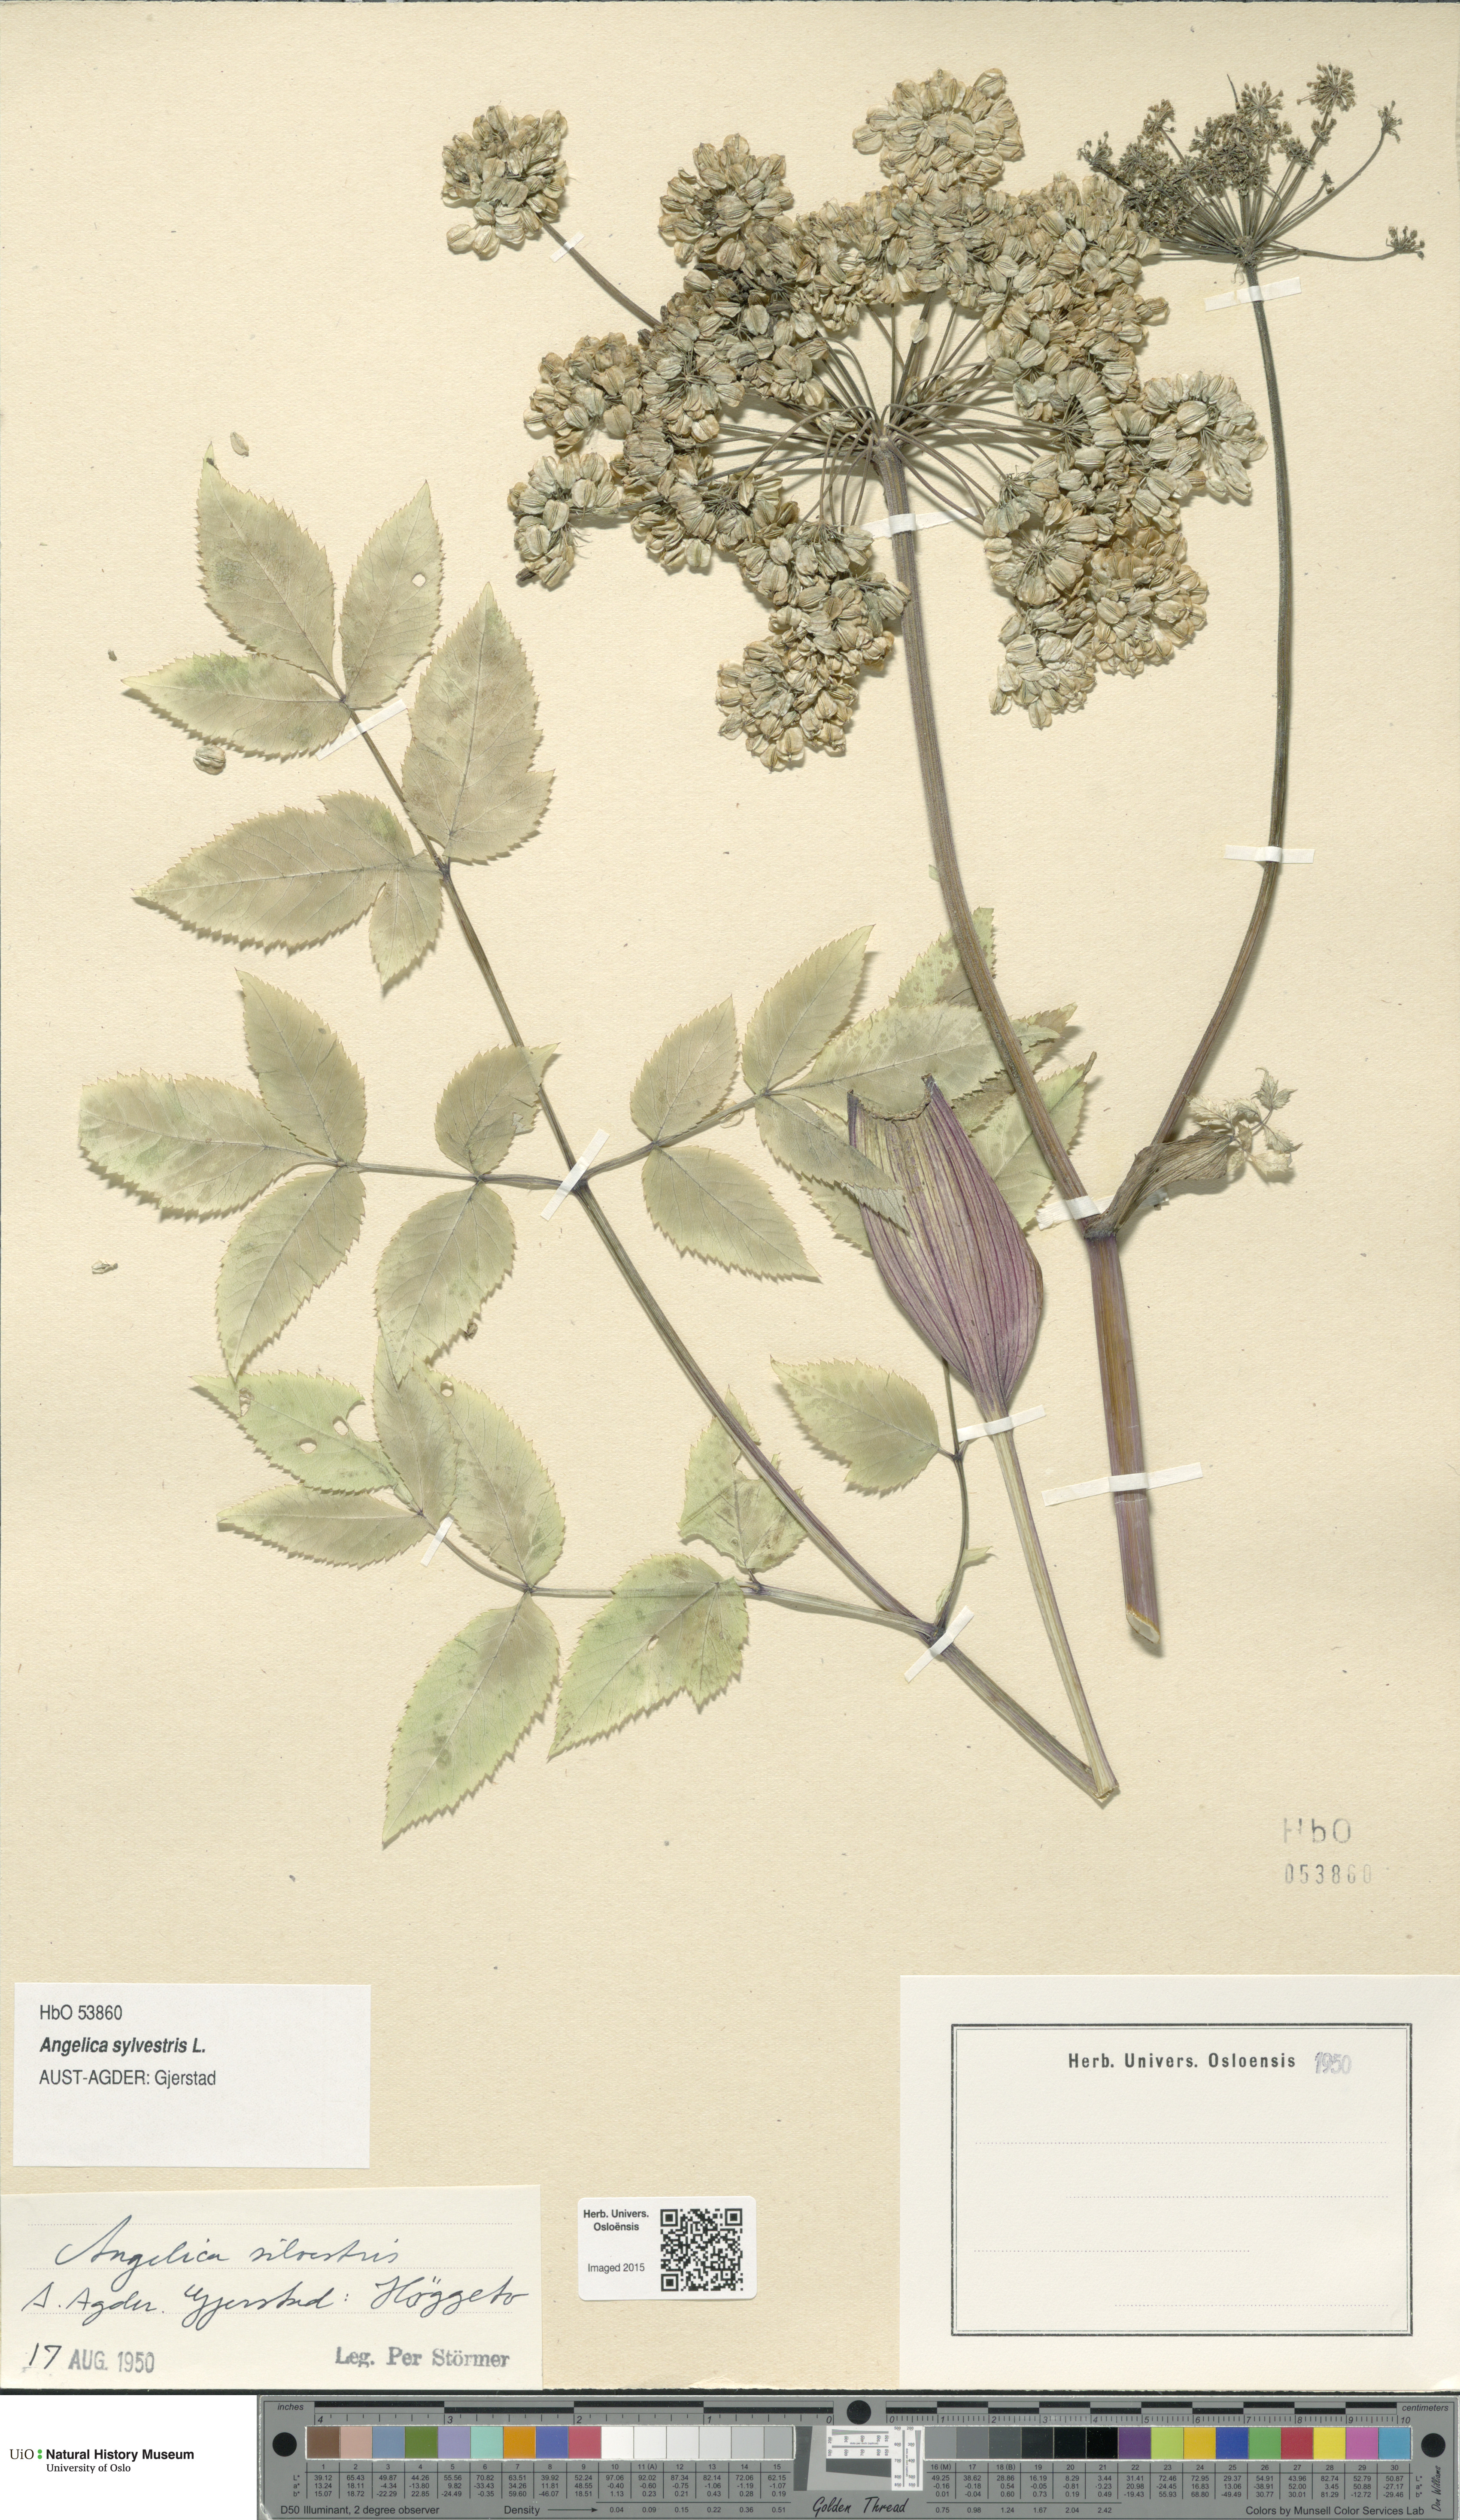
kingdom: Plantae
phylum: Tracheophyta
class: Magnoliopsida
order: Apiales
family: Apiaceae
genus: Angelica
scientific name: Angelica sylvestris
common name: Wild angelica
